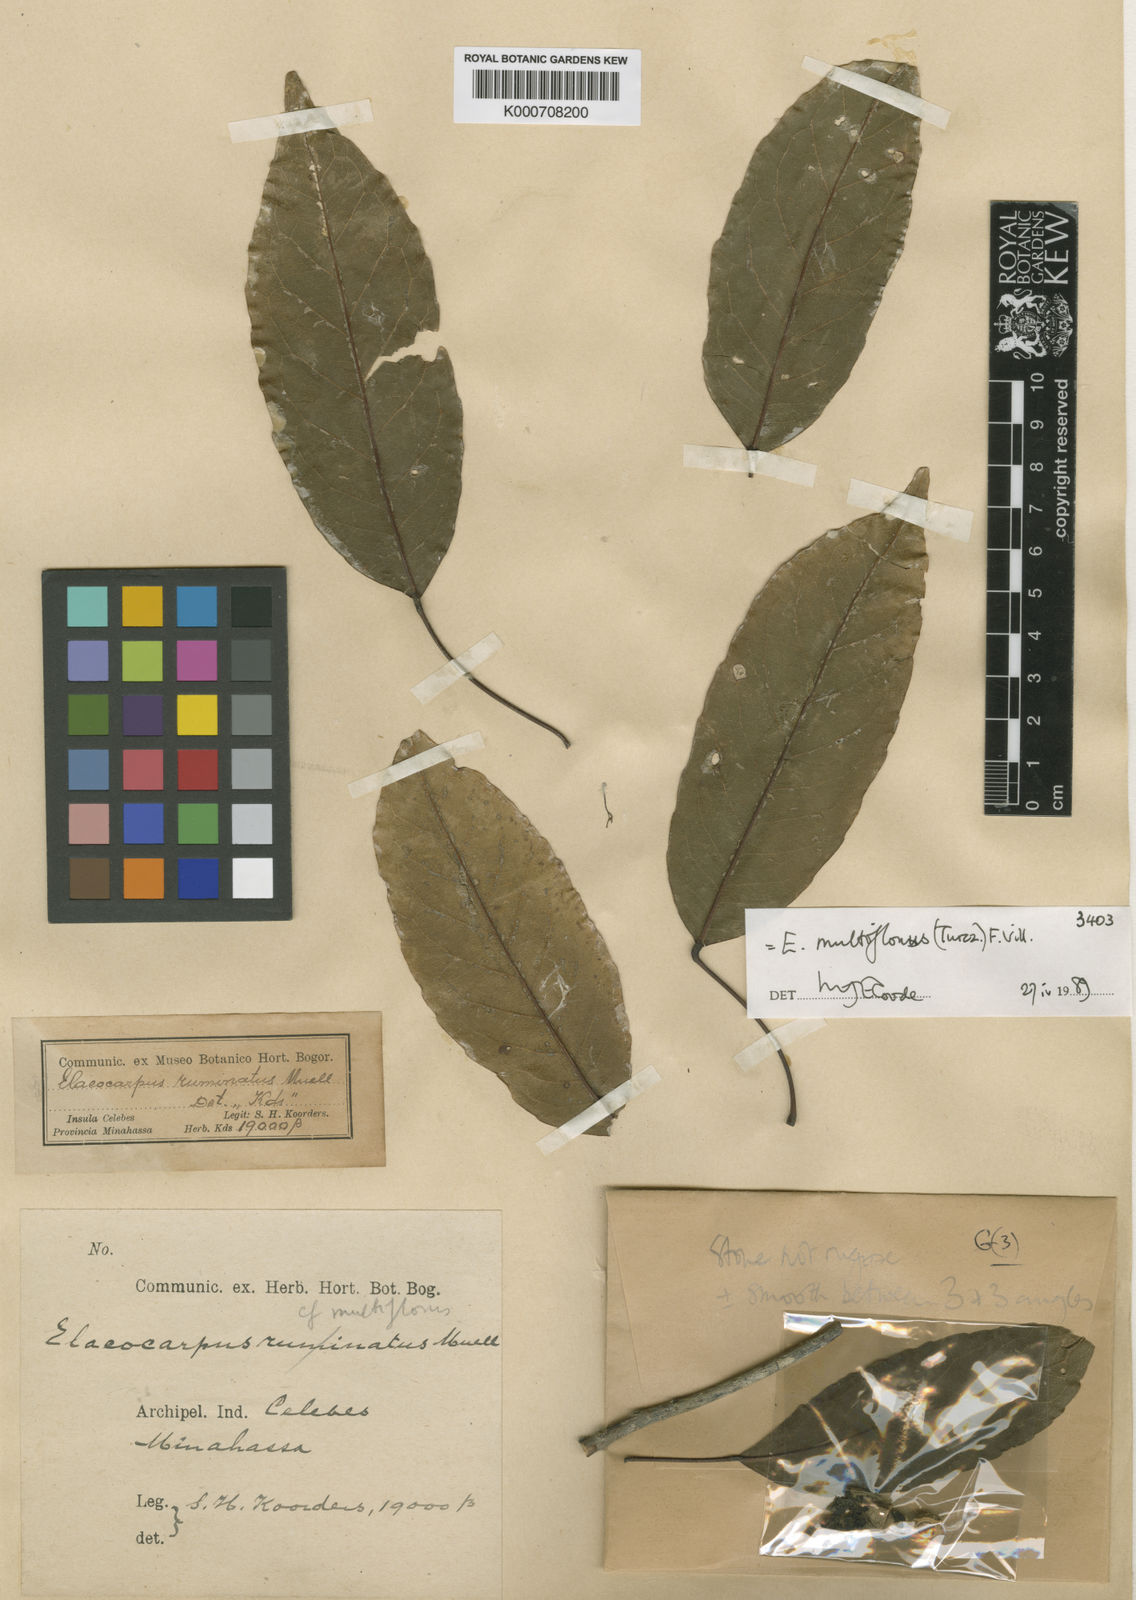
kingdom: Plantae
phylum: Tracheophyta
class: Magnoliopsida
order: Oxalidales
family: Elaeocarpaceae
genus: Elaeocarpus
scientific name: Elaeocarpus multiflorus
